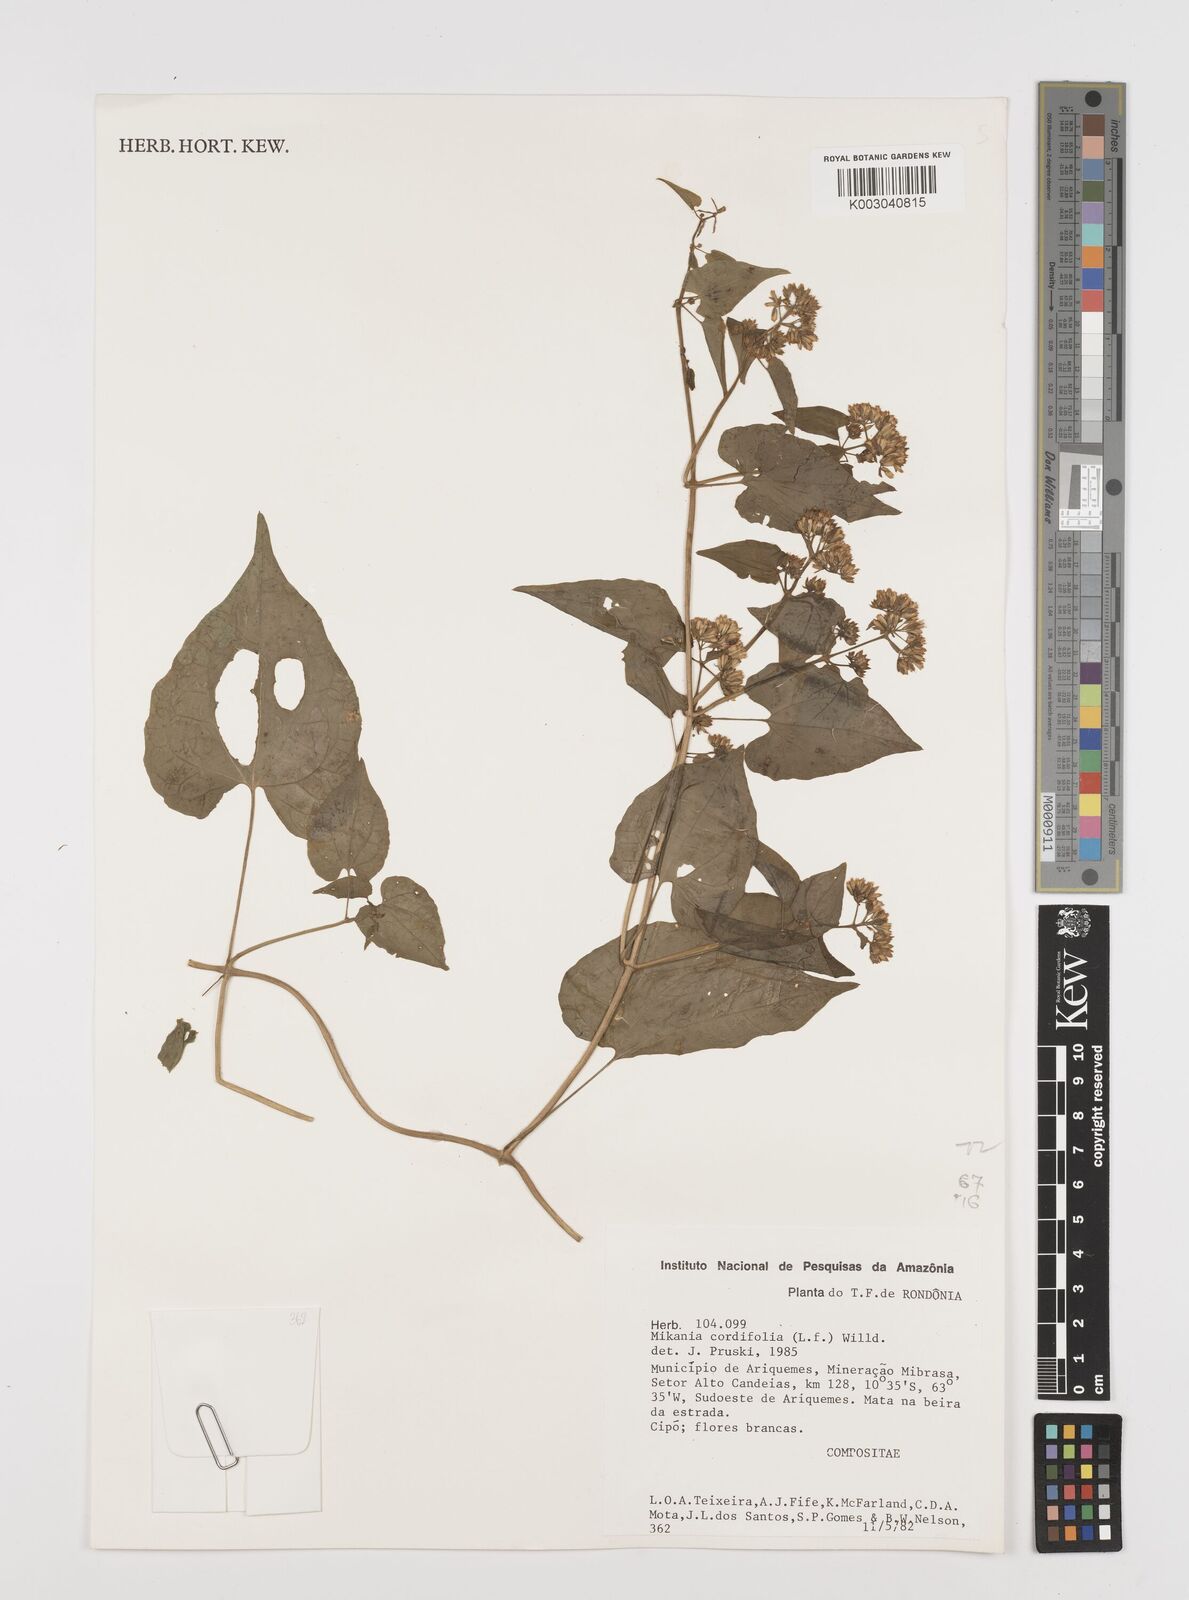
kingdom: Plantae
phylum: Tracheophyta
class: Magnoliopsida
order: Asterales
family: Asteraceae
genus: Mikania
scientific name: Mikania cordifolia
